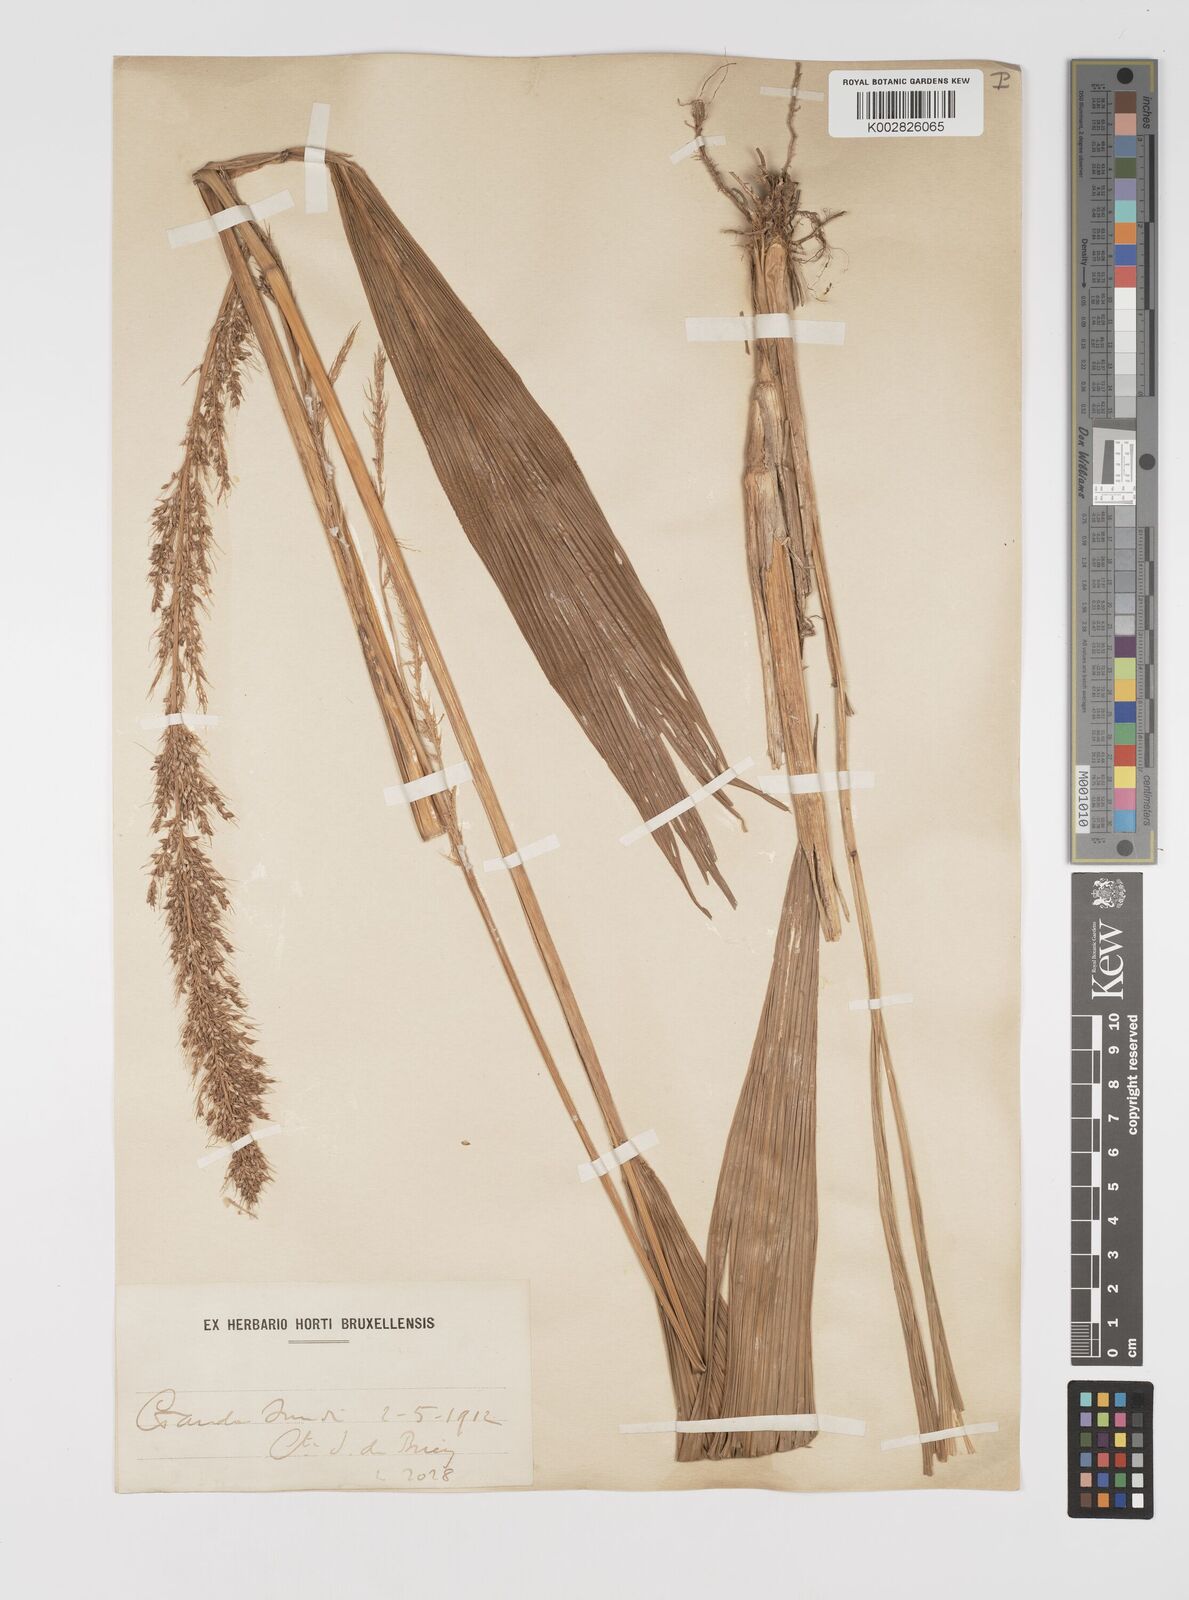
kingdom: Plantae
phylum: Tracheophyta
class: Liliopsida
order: Poales
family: Poaceae
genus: Setaria
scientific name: Setaria megaphylla
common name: Bigleaf bristlegrass
